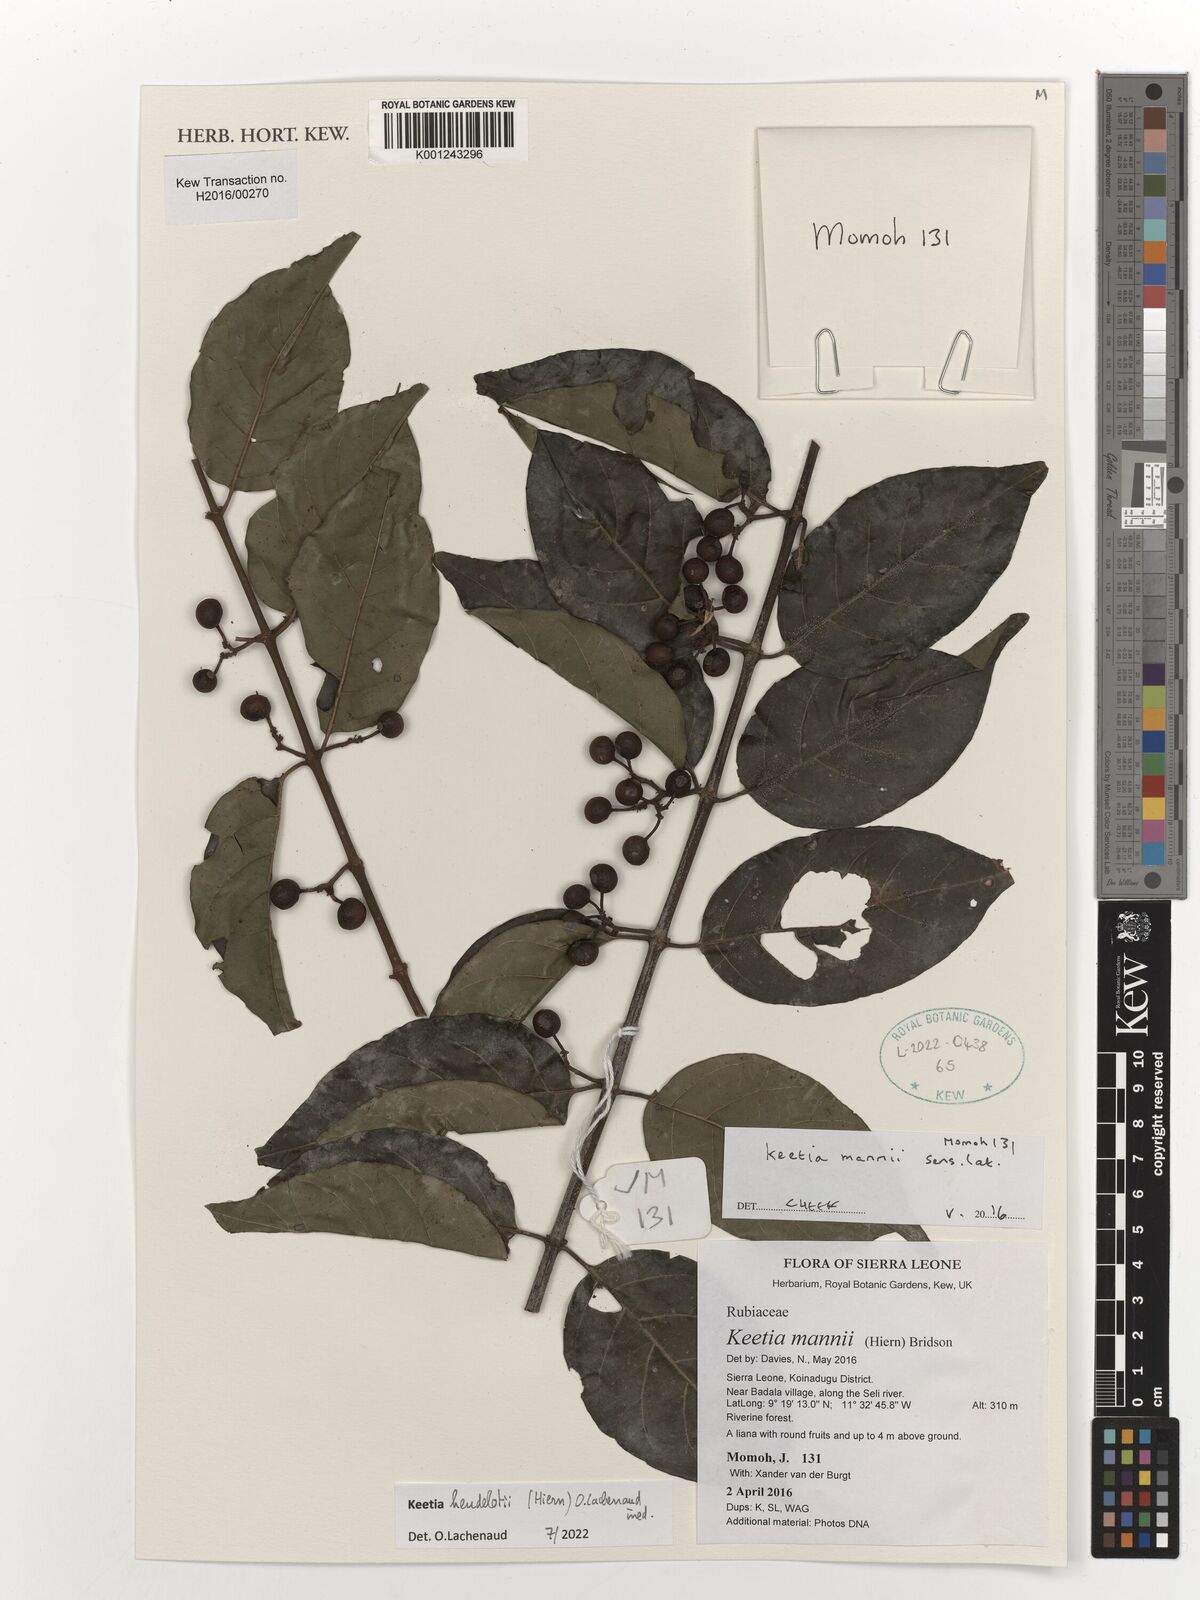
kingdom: Plantae
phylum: Tracheophyta
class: Magnoliopsida
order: Gentianales
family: Rubiaceae
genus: Keetia
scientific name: Keetia mannii
